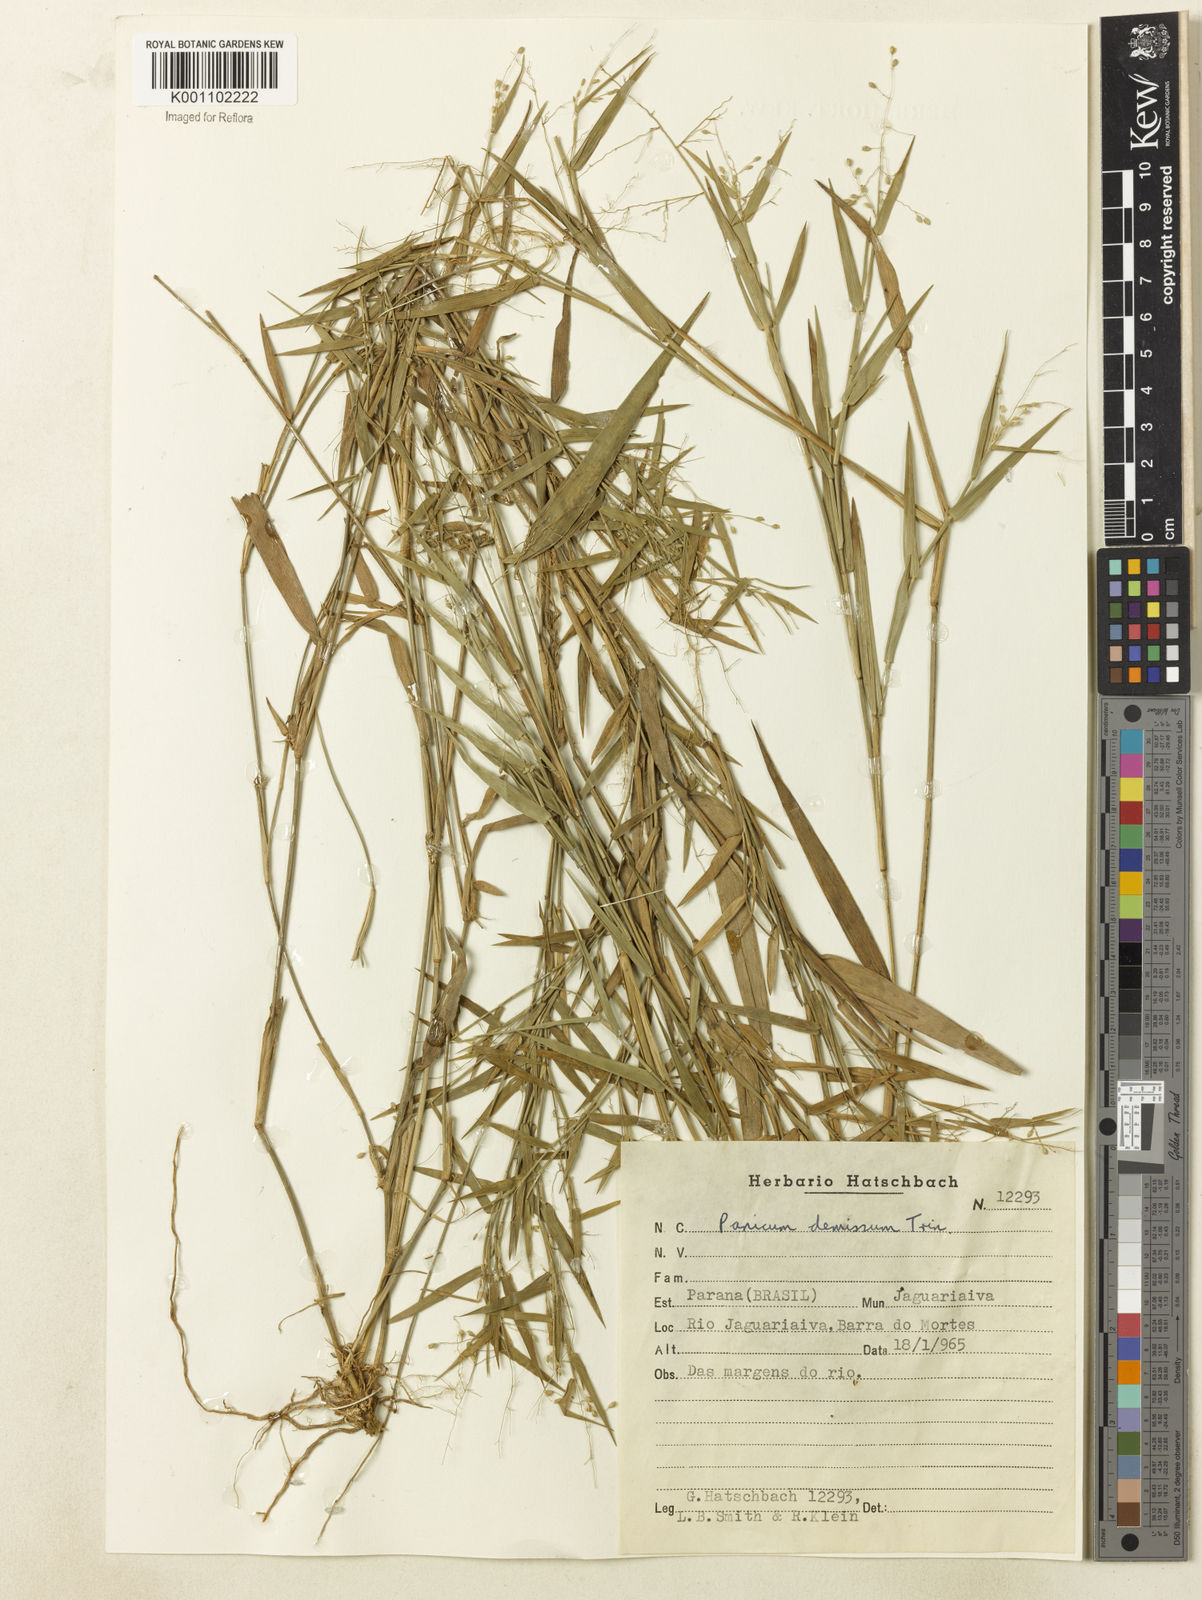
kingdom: Plantae
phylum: Tracheophyta
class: Liliopsida
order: Poales
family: Poaceae
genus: Dichanthelium
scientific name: Dichanthelium sabulorum
